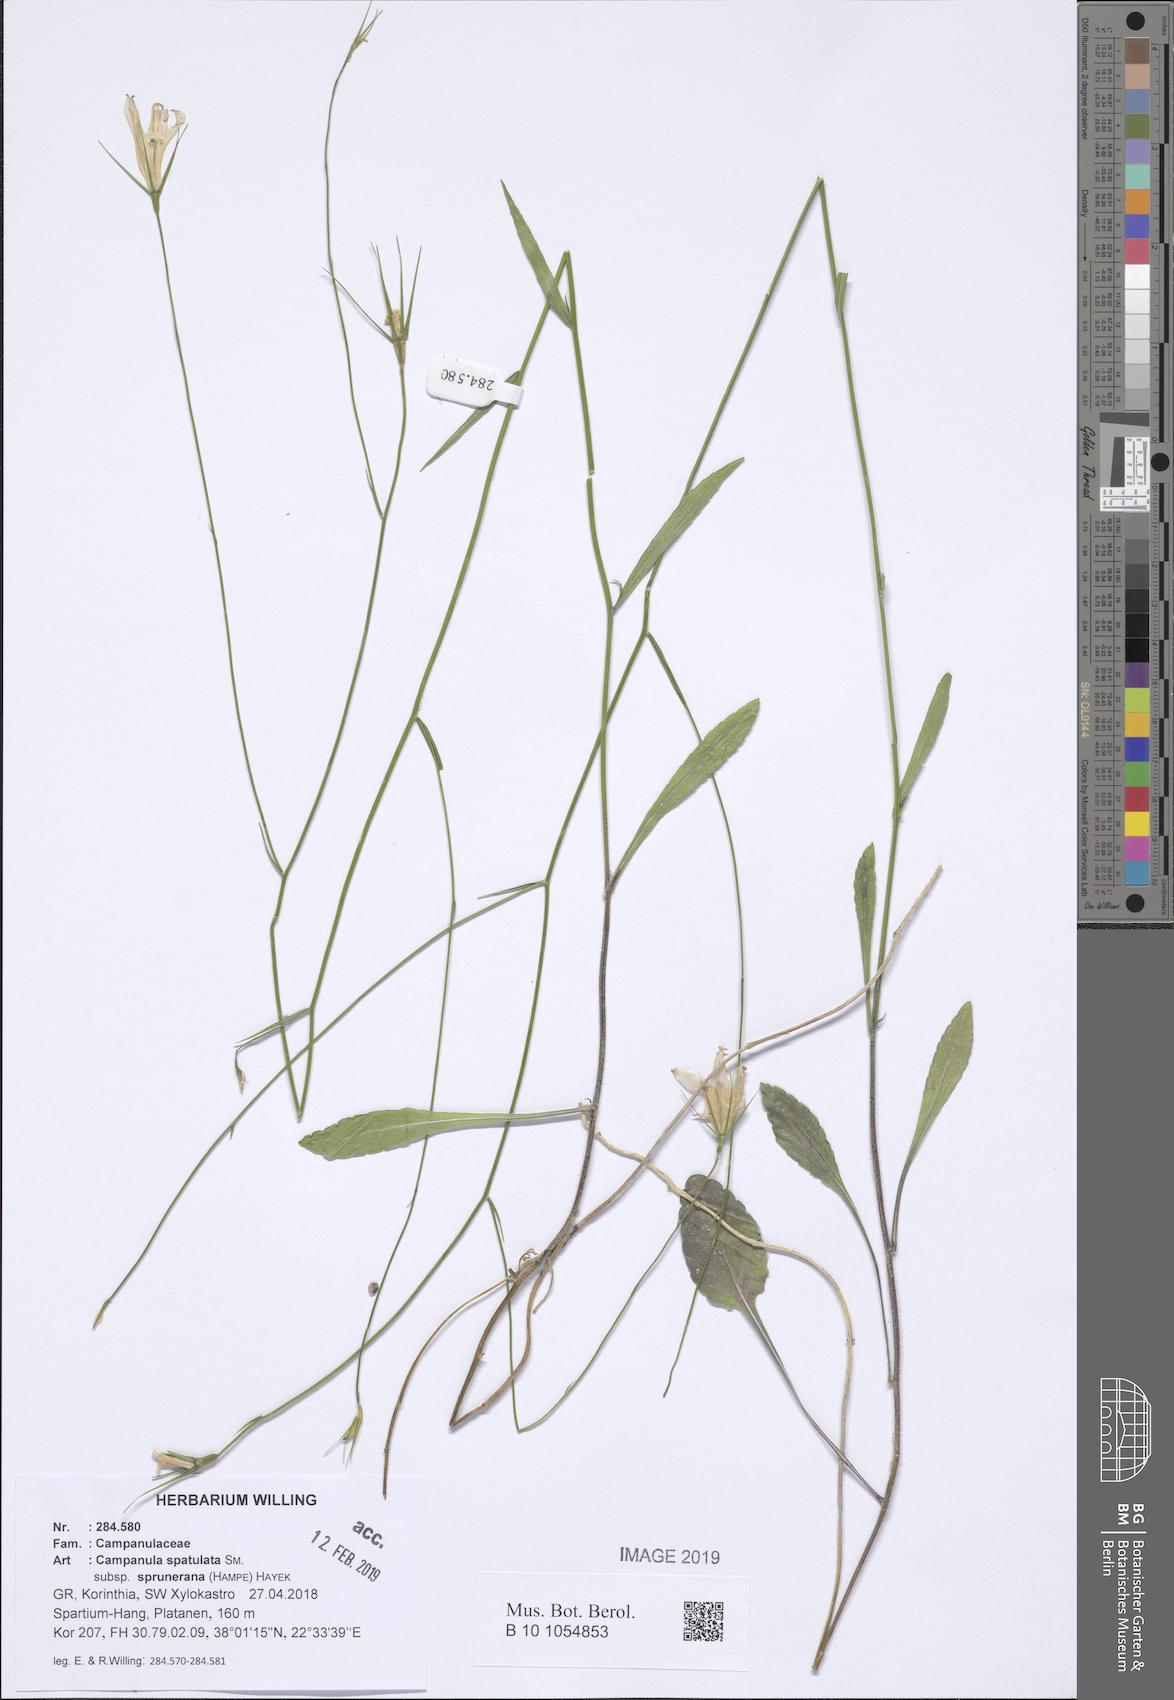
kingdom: Plantae
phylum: Tracheophyta
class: Magnoliopsida
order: Asterales
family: Campanulaceae
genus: Campanula
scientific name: Campanula spatulata
